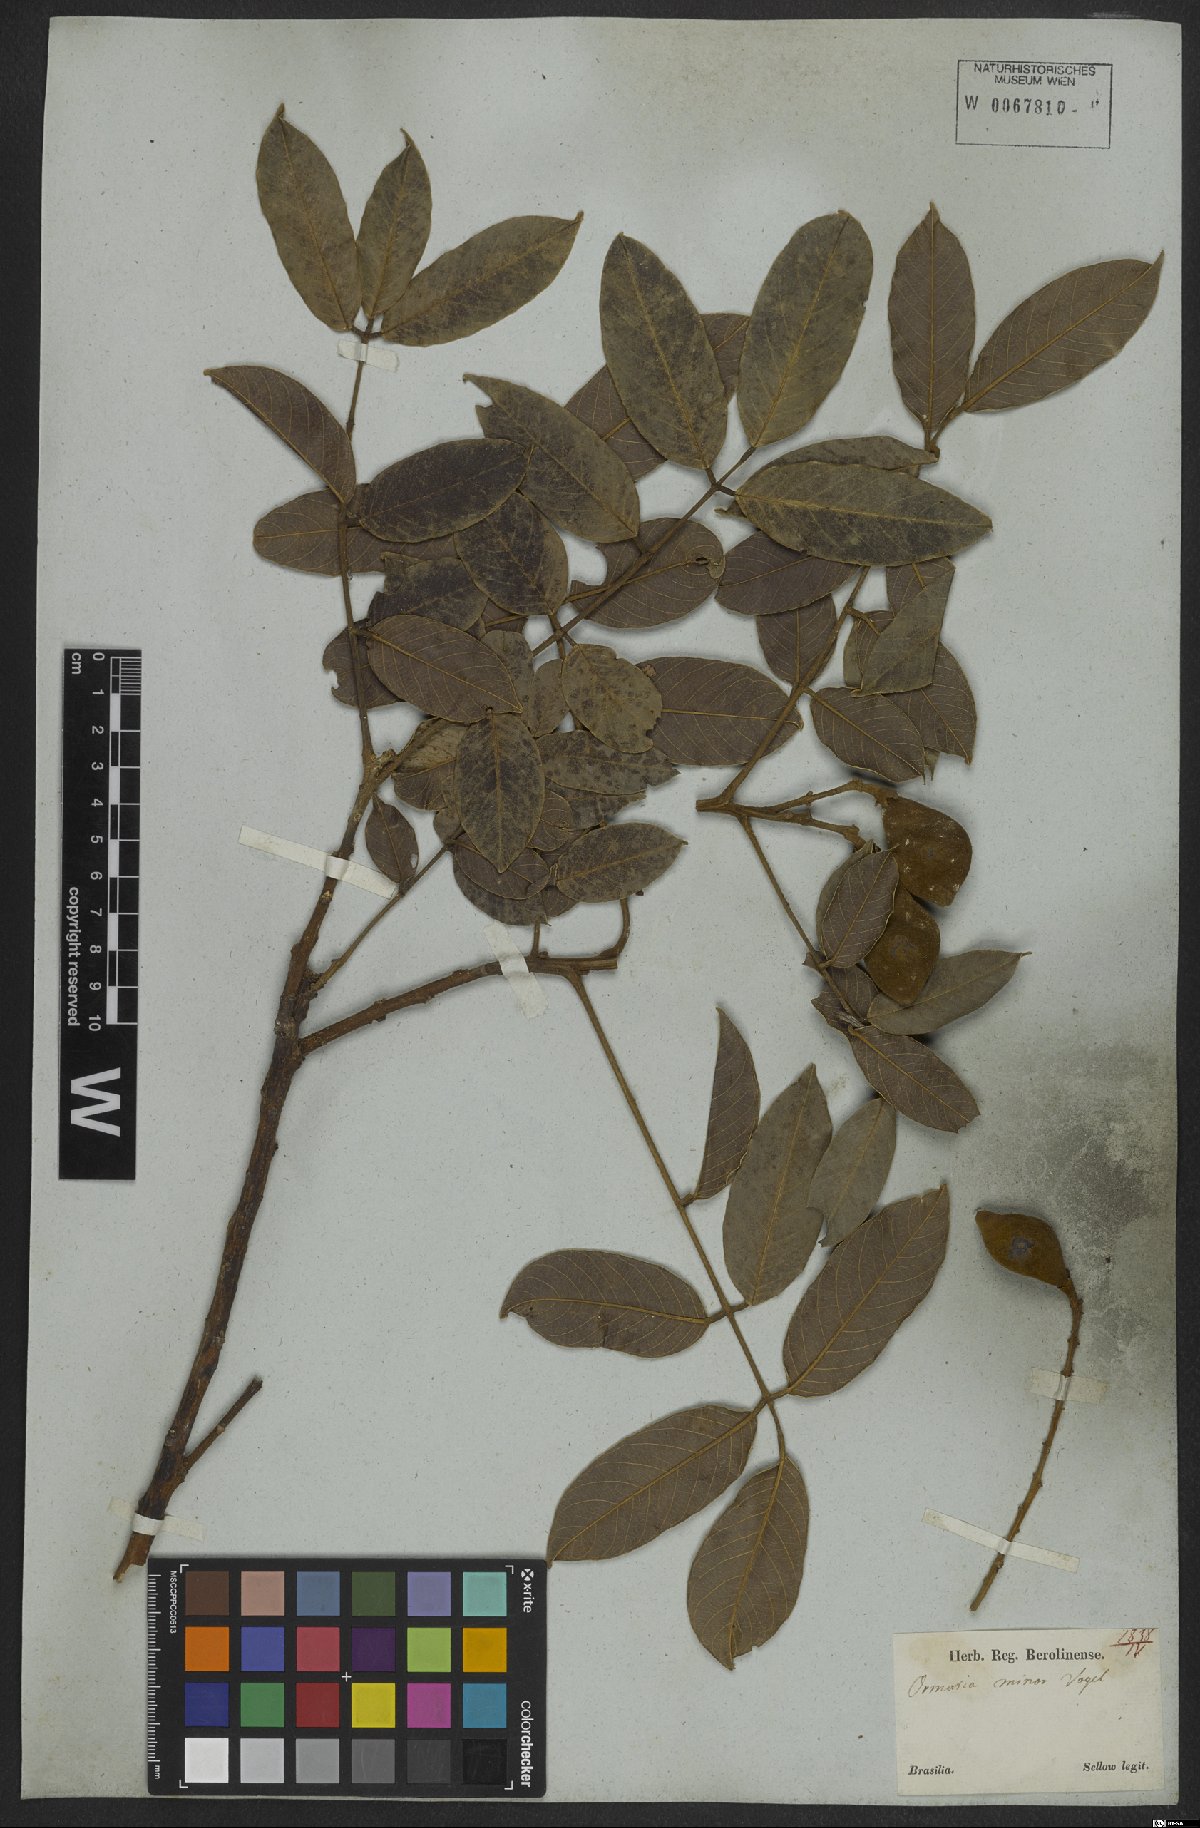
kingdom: Plantae
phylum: Tracheophyta
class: Magnoliopsida
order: Fabales
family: Fabaceae
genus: Ormosia
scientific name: Ormosia minor
